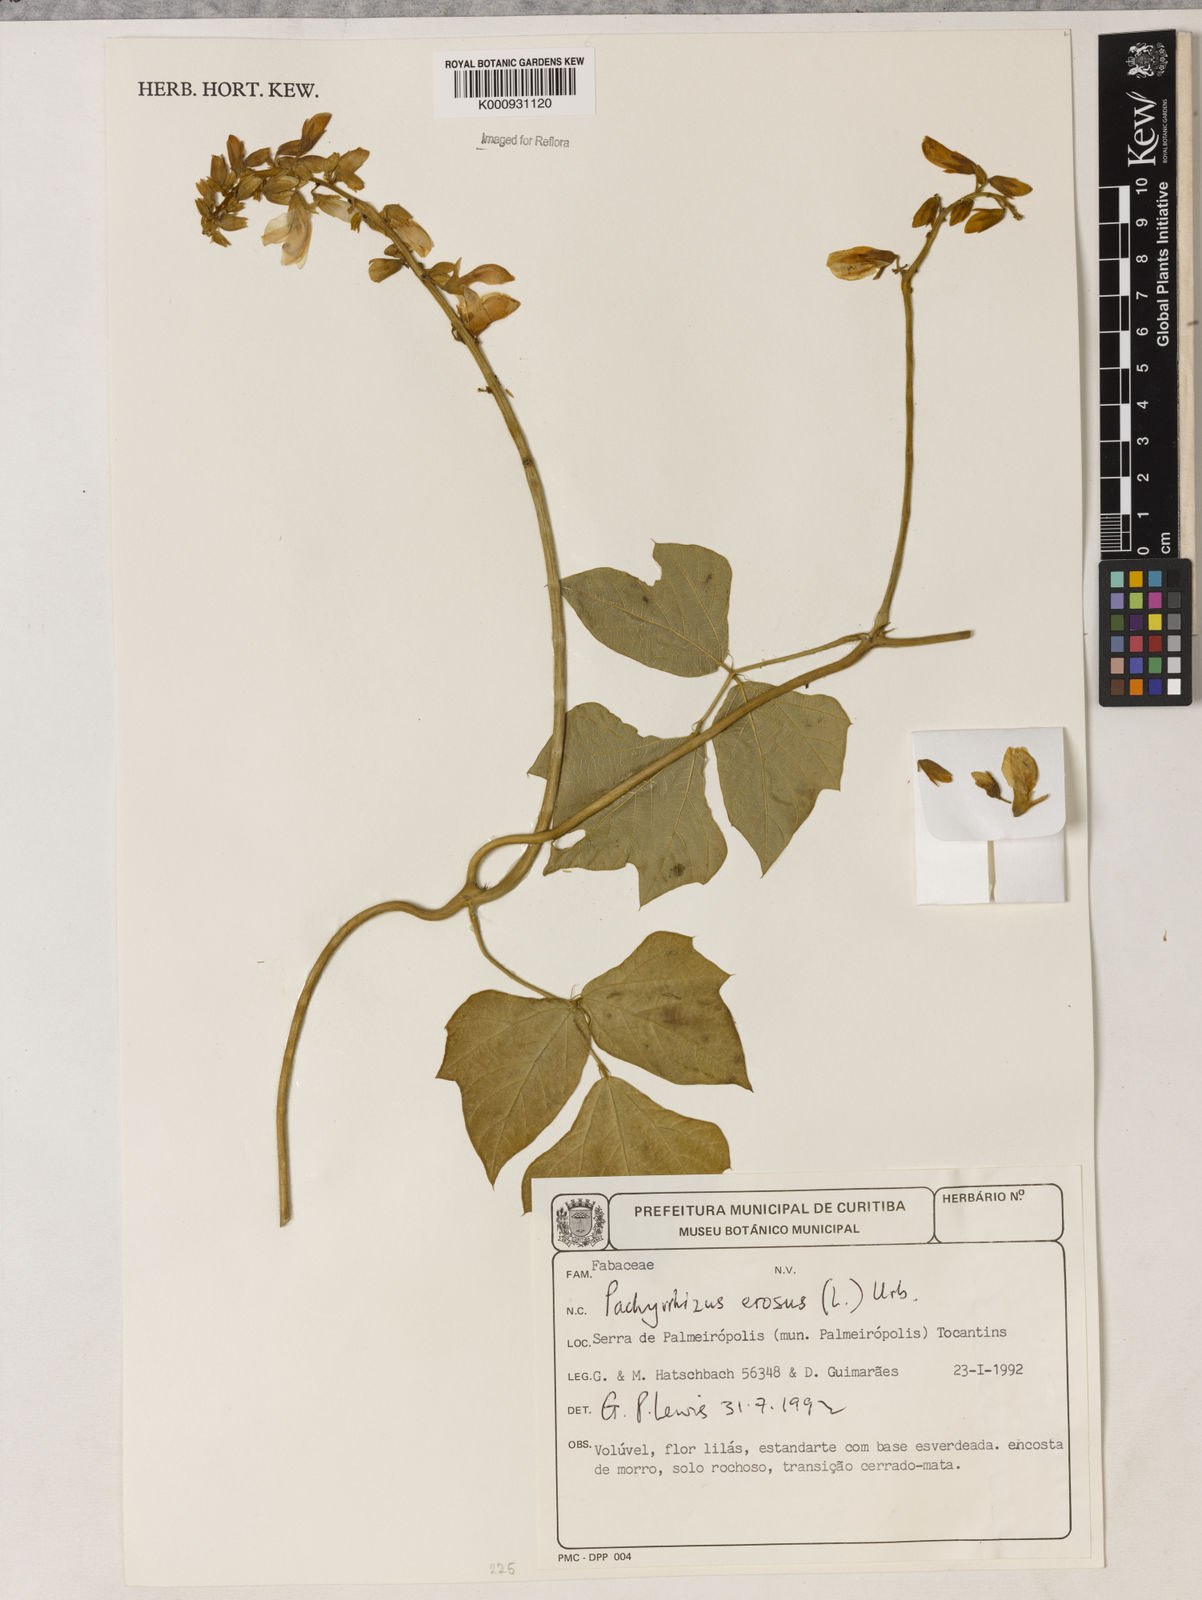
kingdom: Plantae
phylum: Tracheophyta
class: Magnoliopsida
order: Fabales
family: Fabaceae
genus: Pachyrhizus
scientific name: Pachyrhizus erosus
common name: Yam bean
